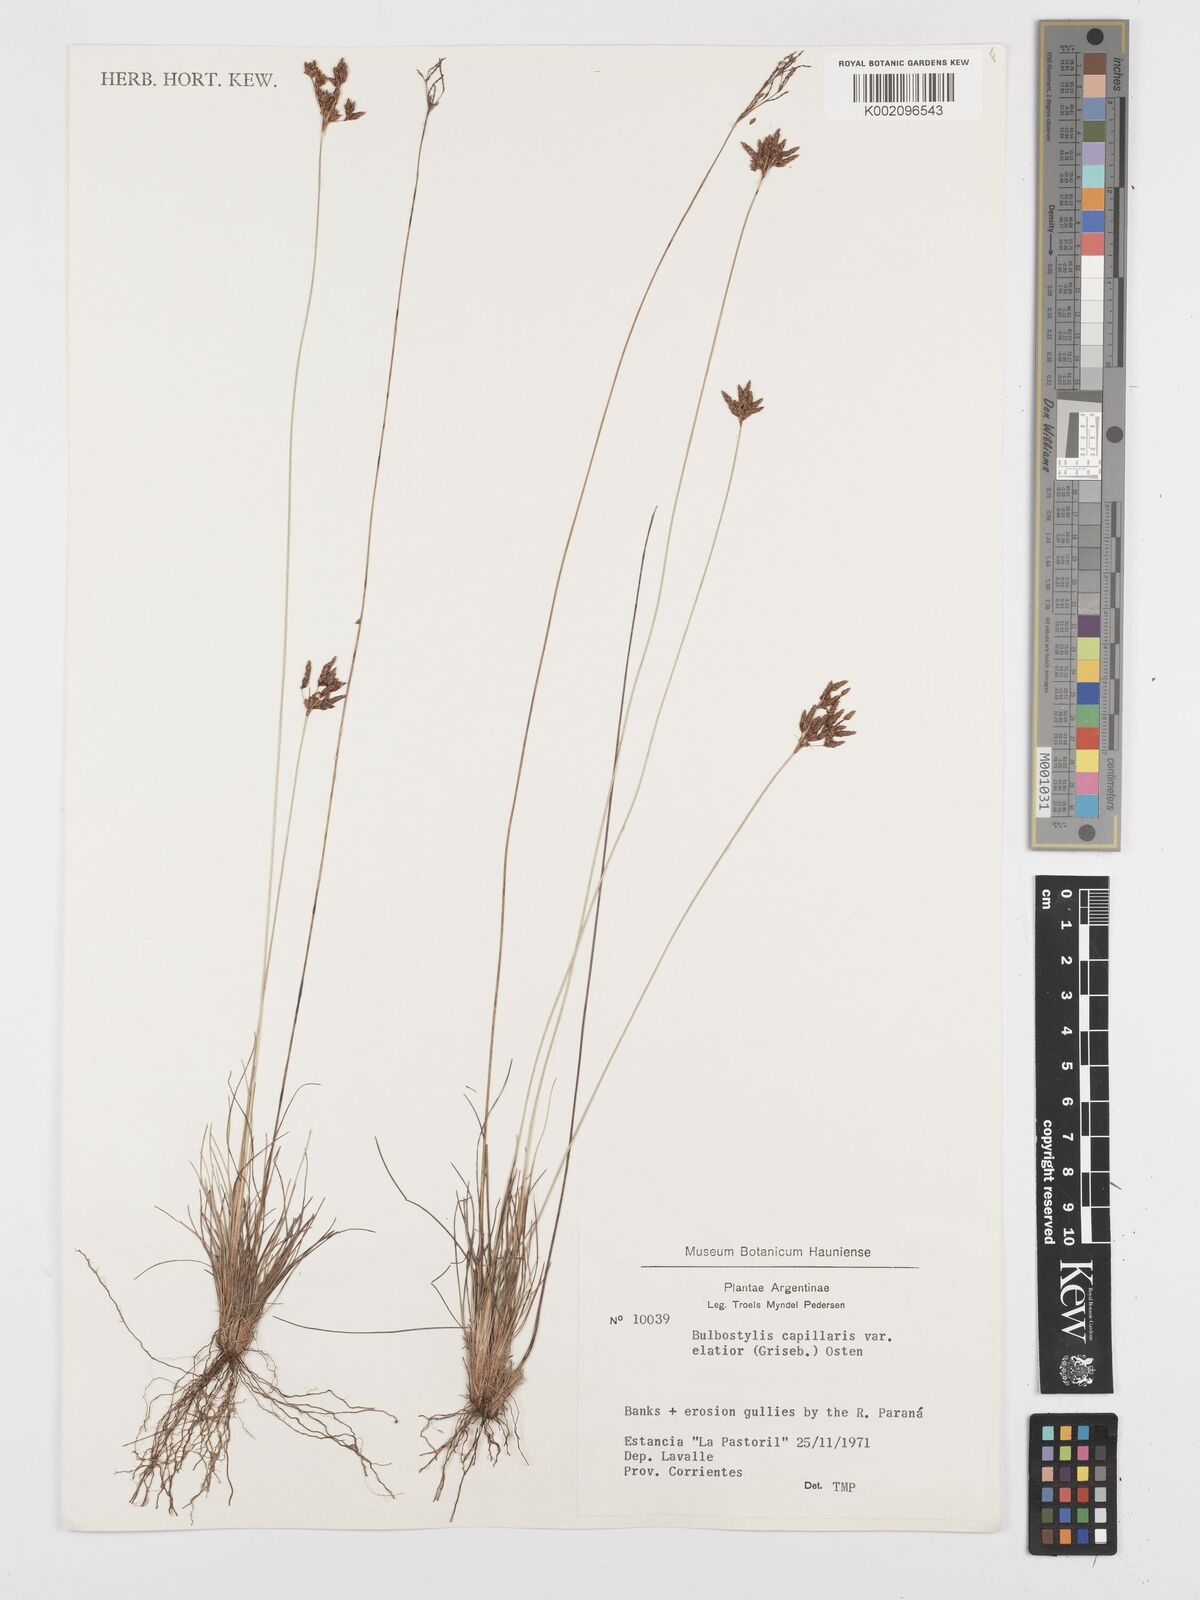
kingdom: Plantae
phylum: Tracheophyta
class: Liliopsida
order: Poales
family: Cyperaceae
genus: Bulbostylis
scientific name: Bulbostylis communis
